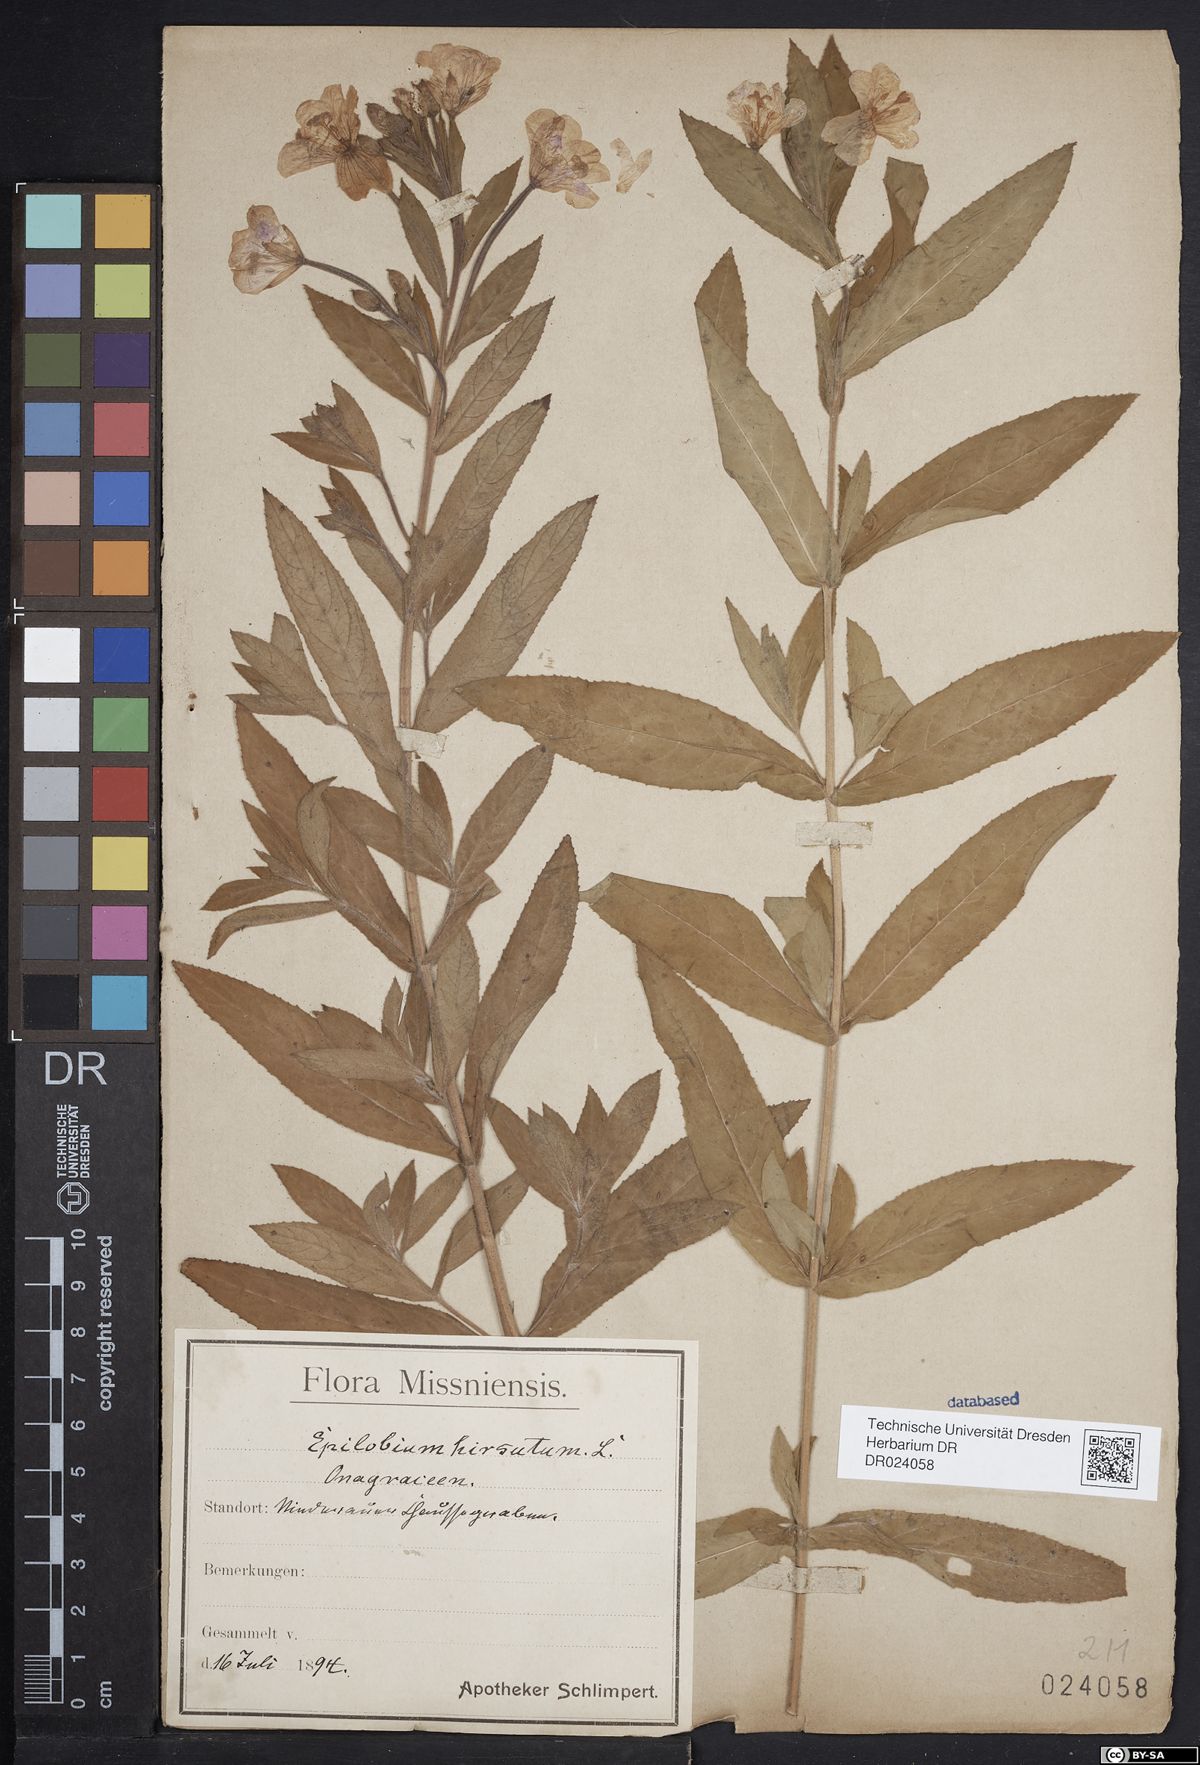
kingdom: Plantae
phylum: Tracheophyta
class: Magnoliopsida
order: Myrtales
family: Onagraceae
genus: Epilobium
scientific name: Epilobium hirsutum
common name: Great willowherb
